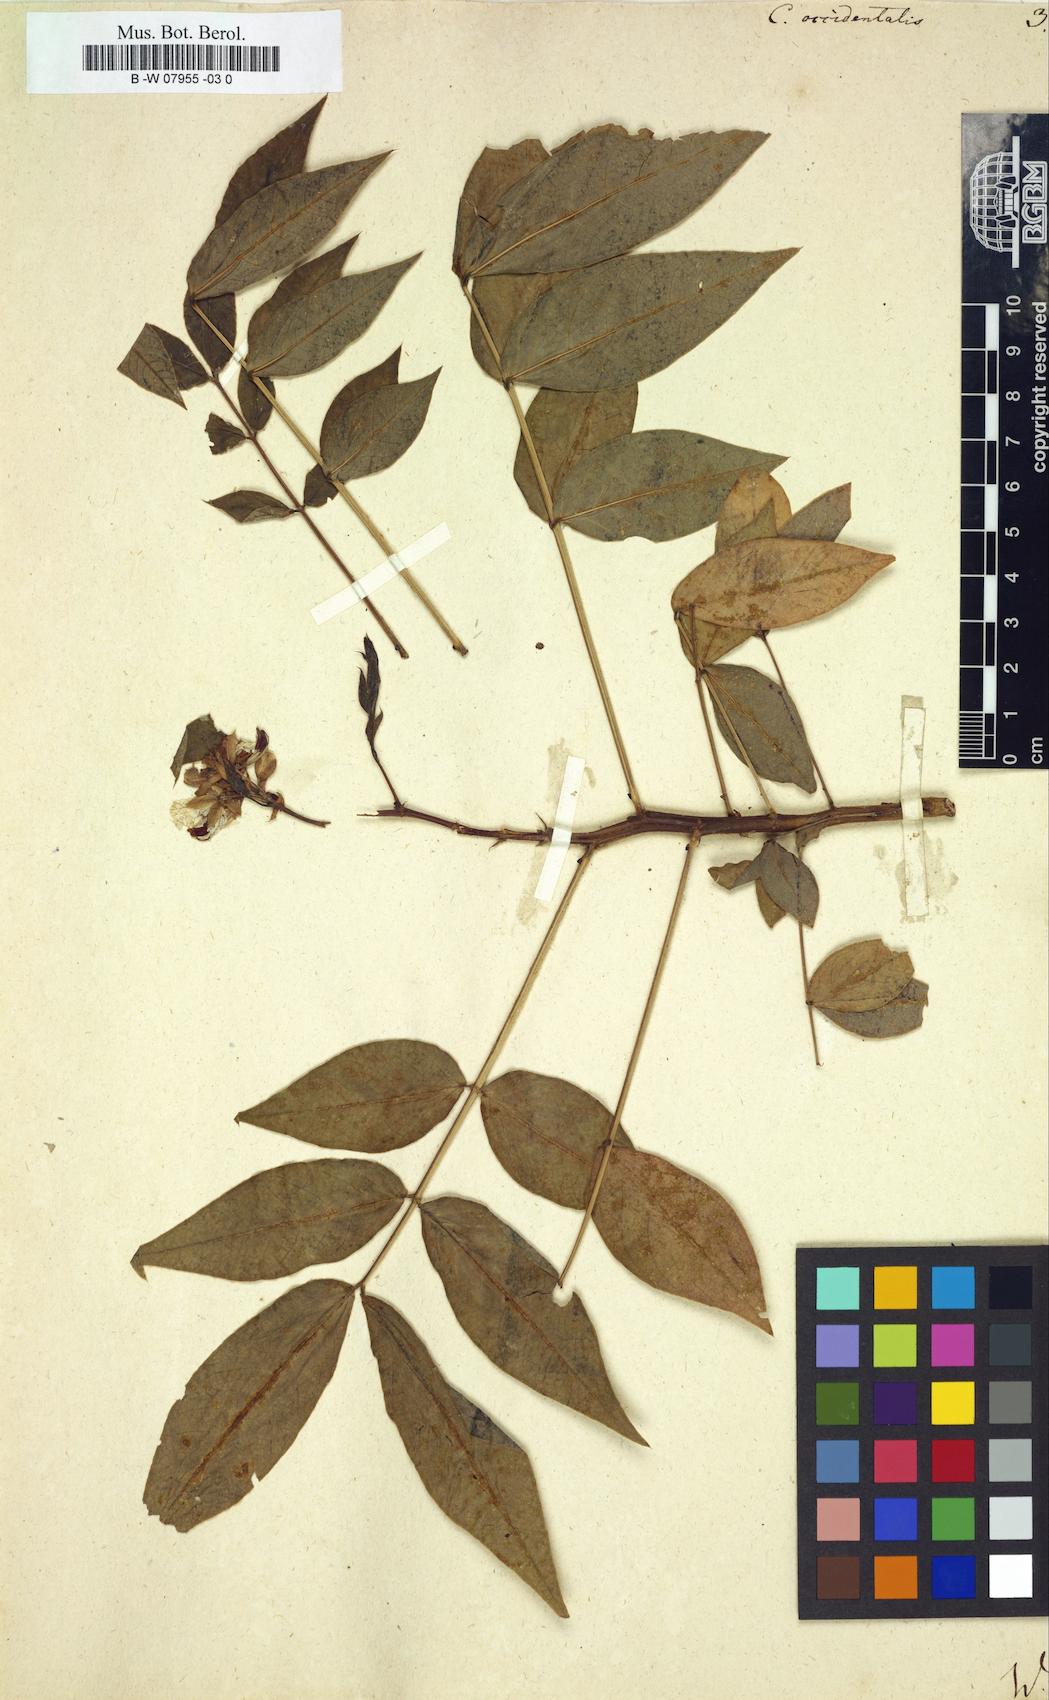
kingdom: Plantae
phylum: Tracheophyta
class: Magnoliopsida
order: Fabales
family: Fabaceae
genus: Senna
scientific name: Senna occidentalis
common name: Septicweed
